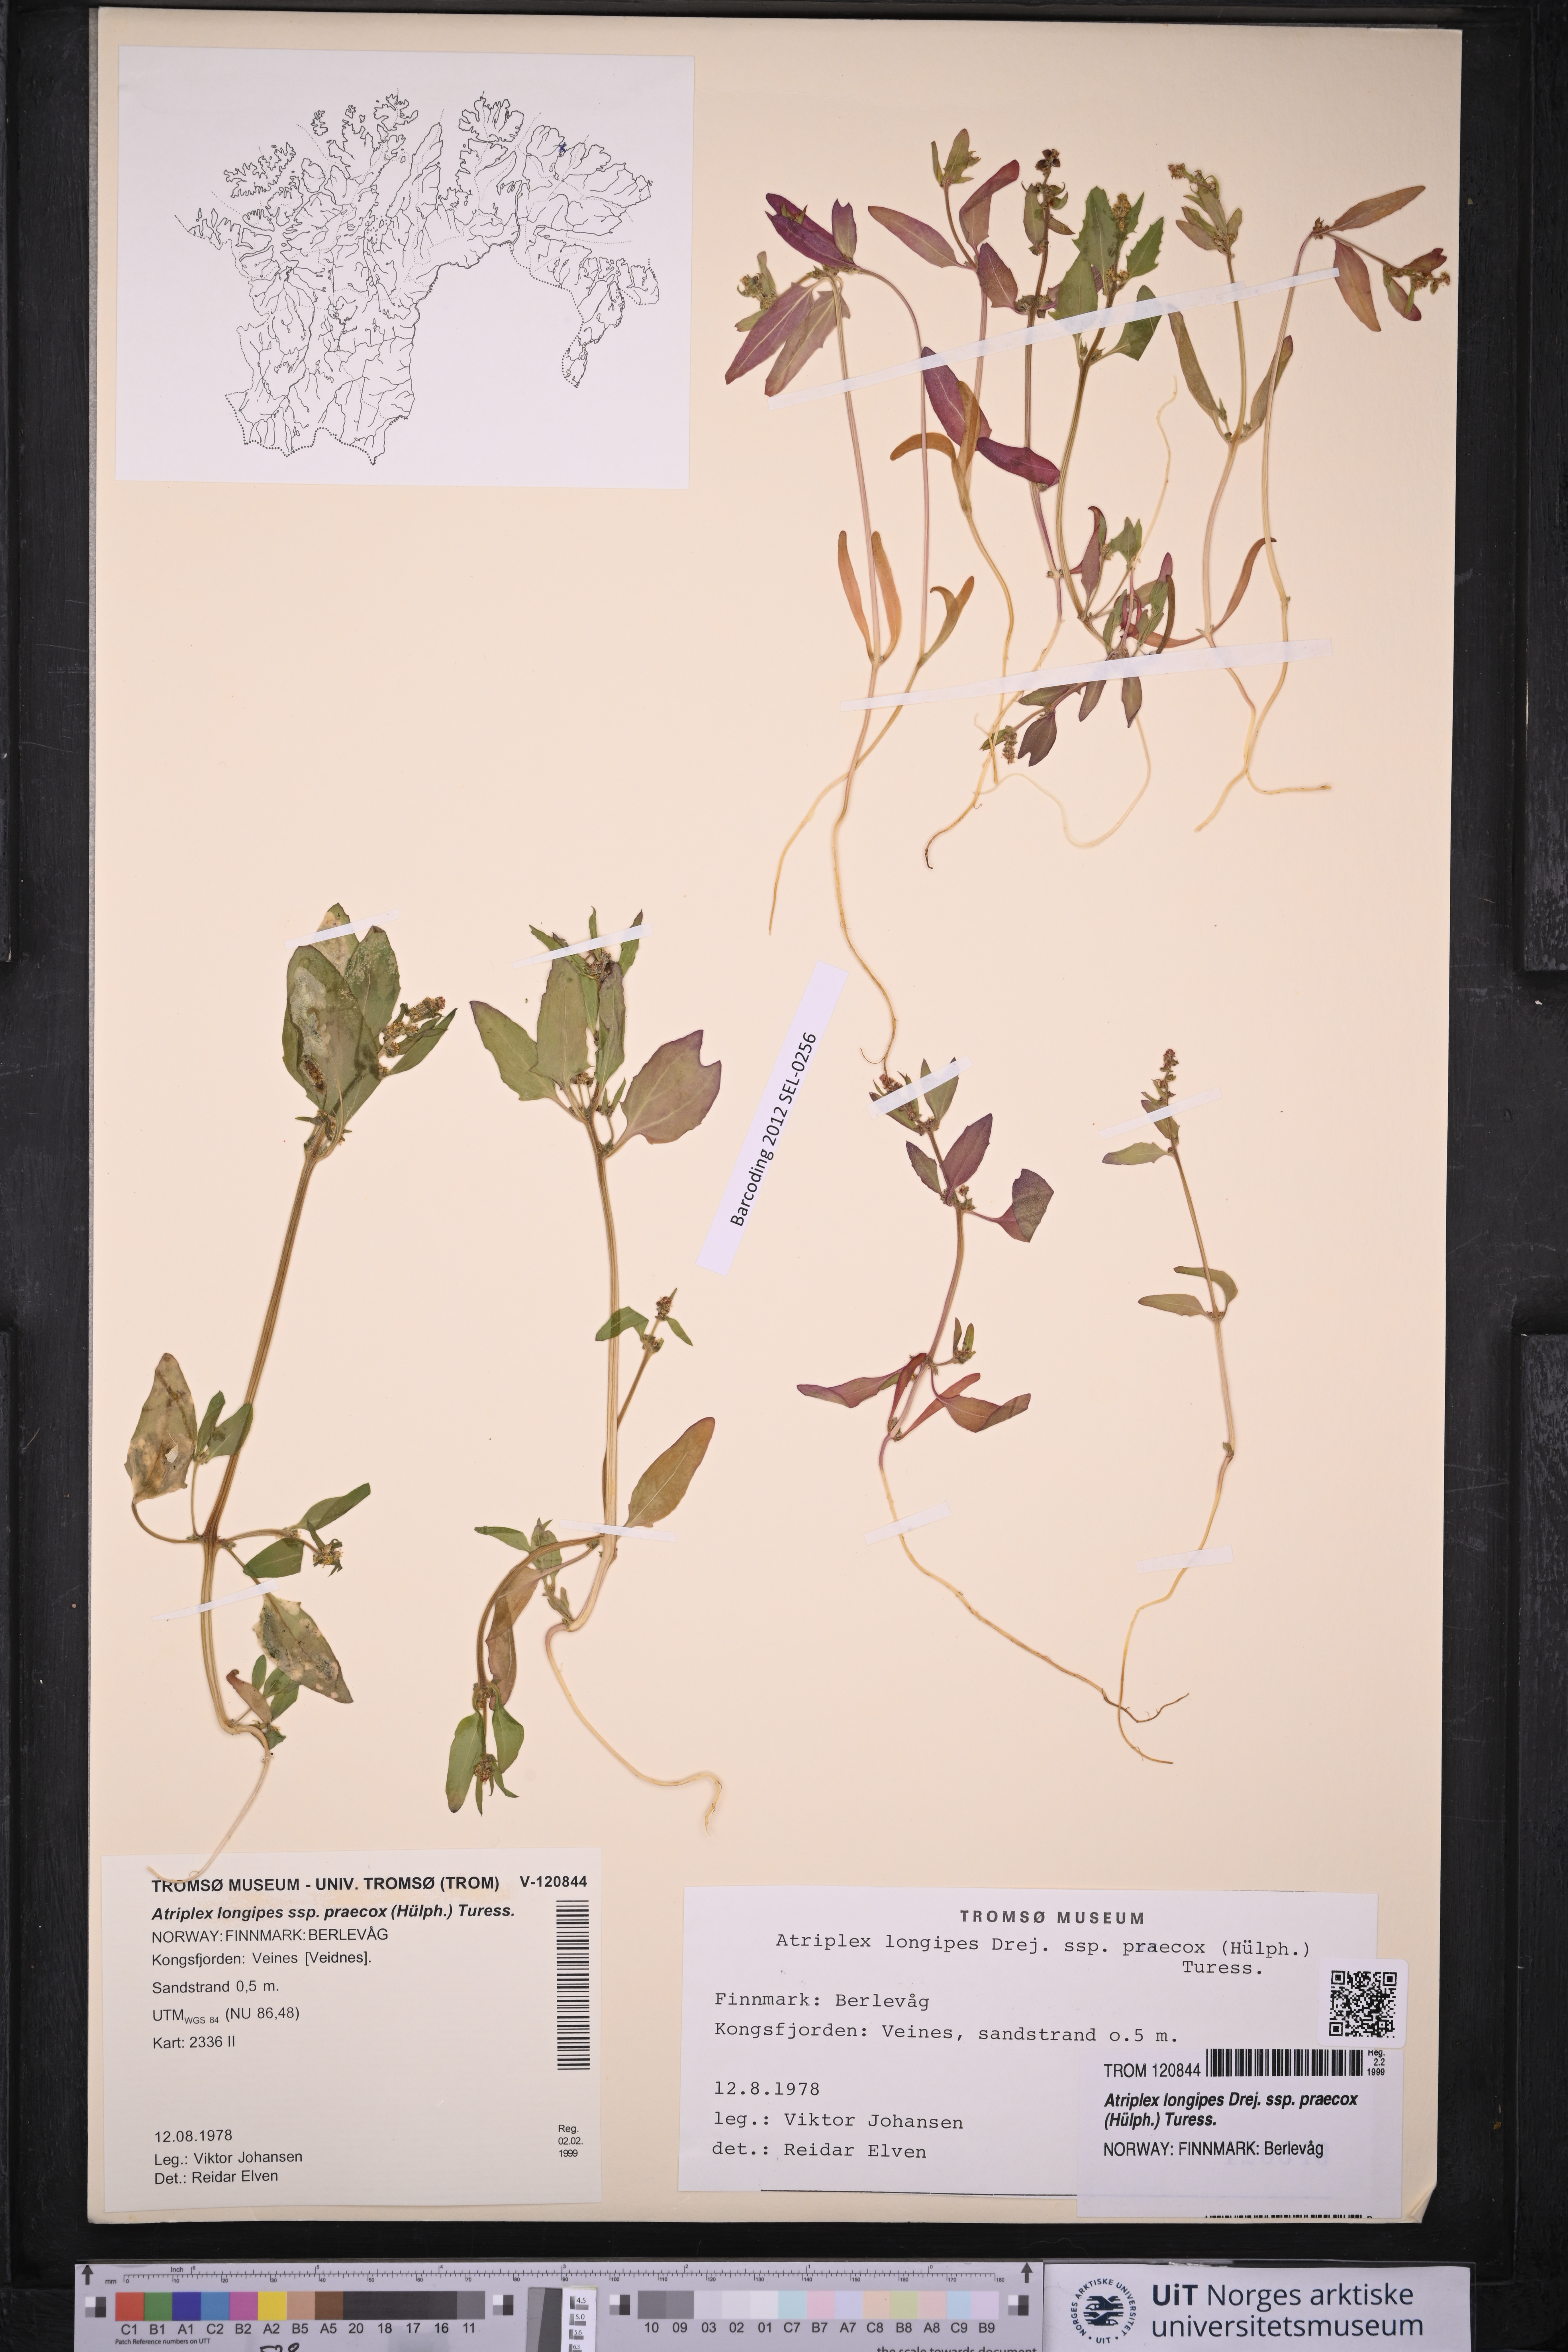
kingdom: Plantae
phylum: Tracheophyta
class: Magnoliopsida
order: Caryophyllales
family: Amaranthaceae
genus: Atriplex
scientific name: Atriplex praecox
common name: Early orache
